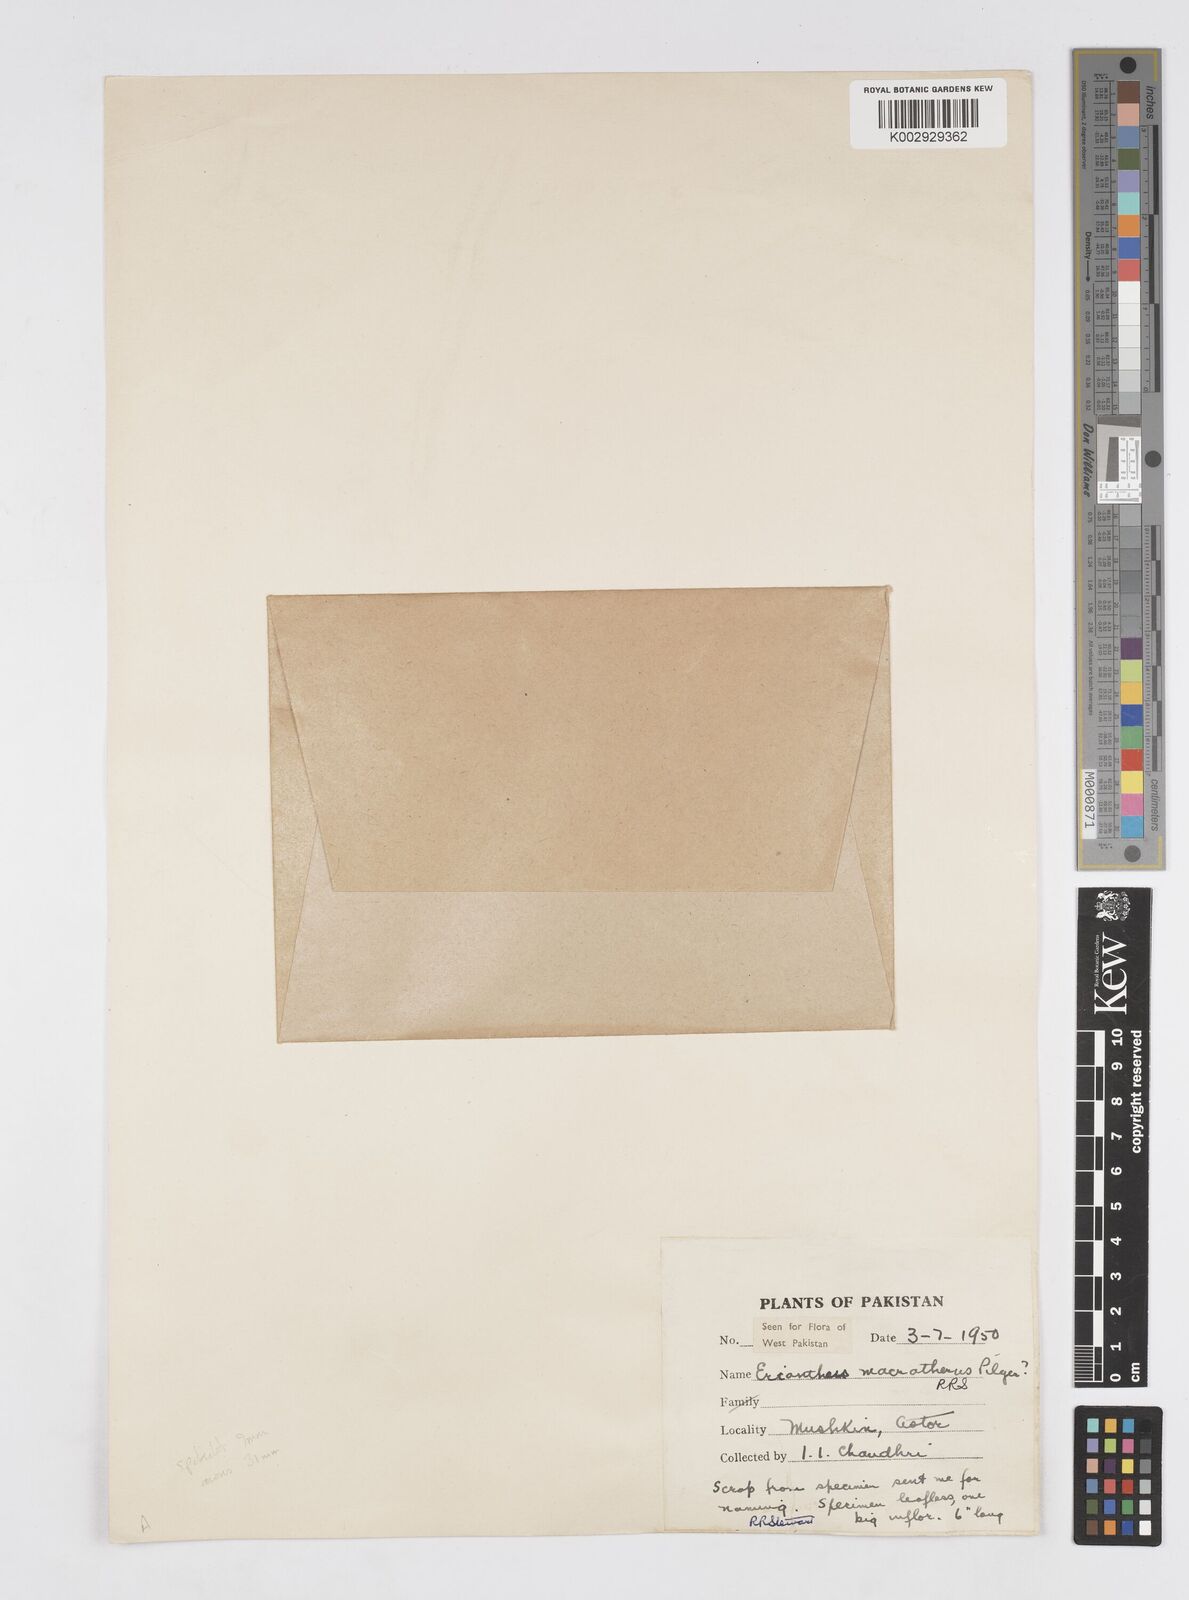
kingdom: Plantae
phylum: Tracheophyta
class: Liliopsida
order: Poales
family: Poaceae
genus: Saccharum
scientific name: Saccharum filifolium
